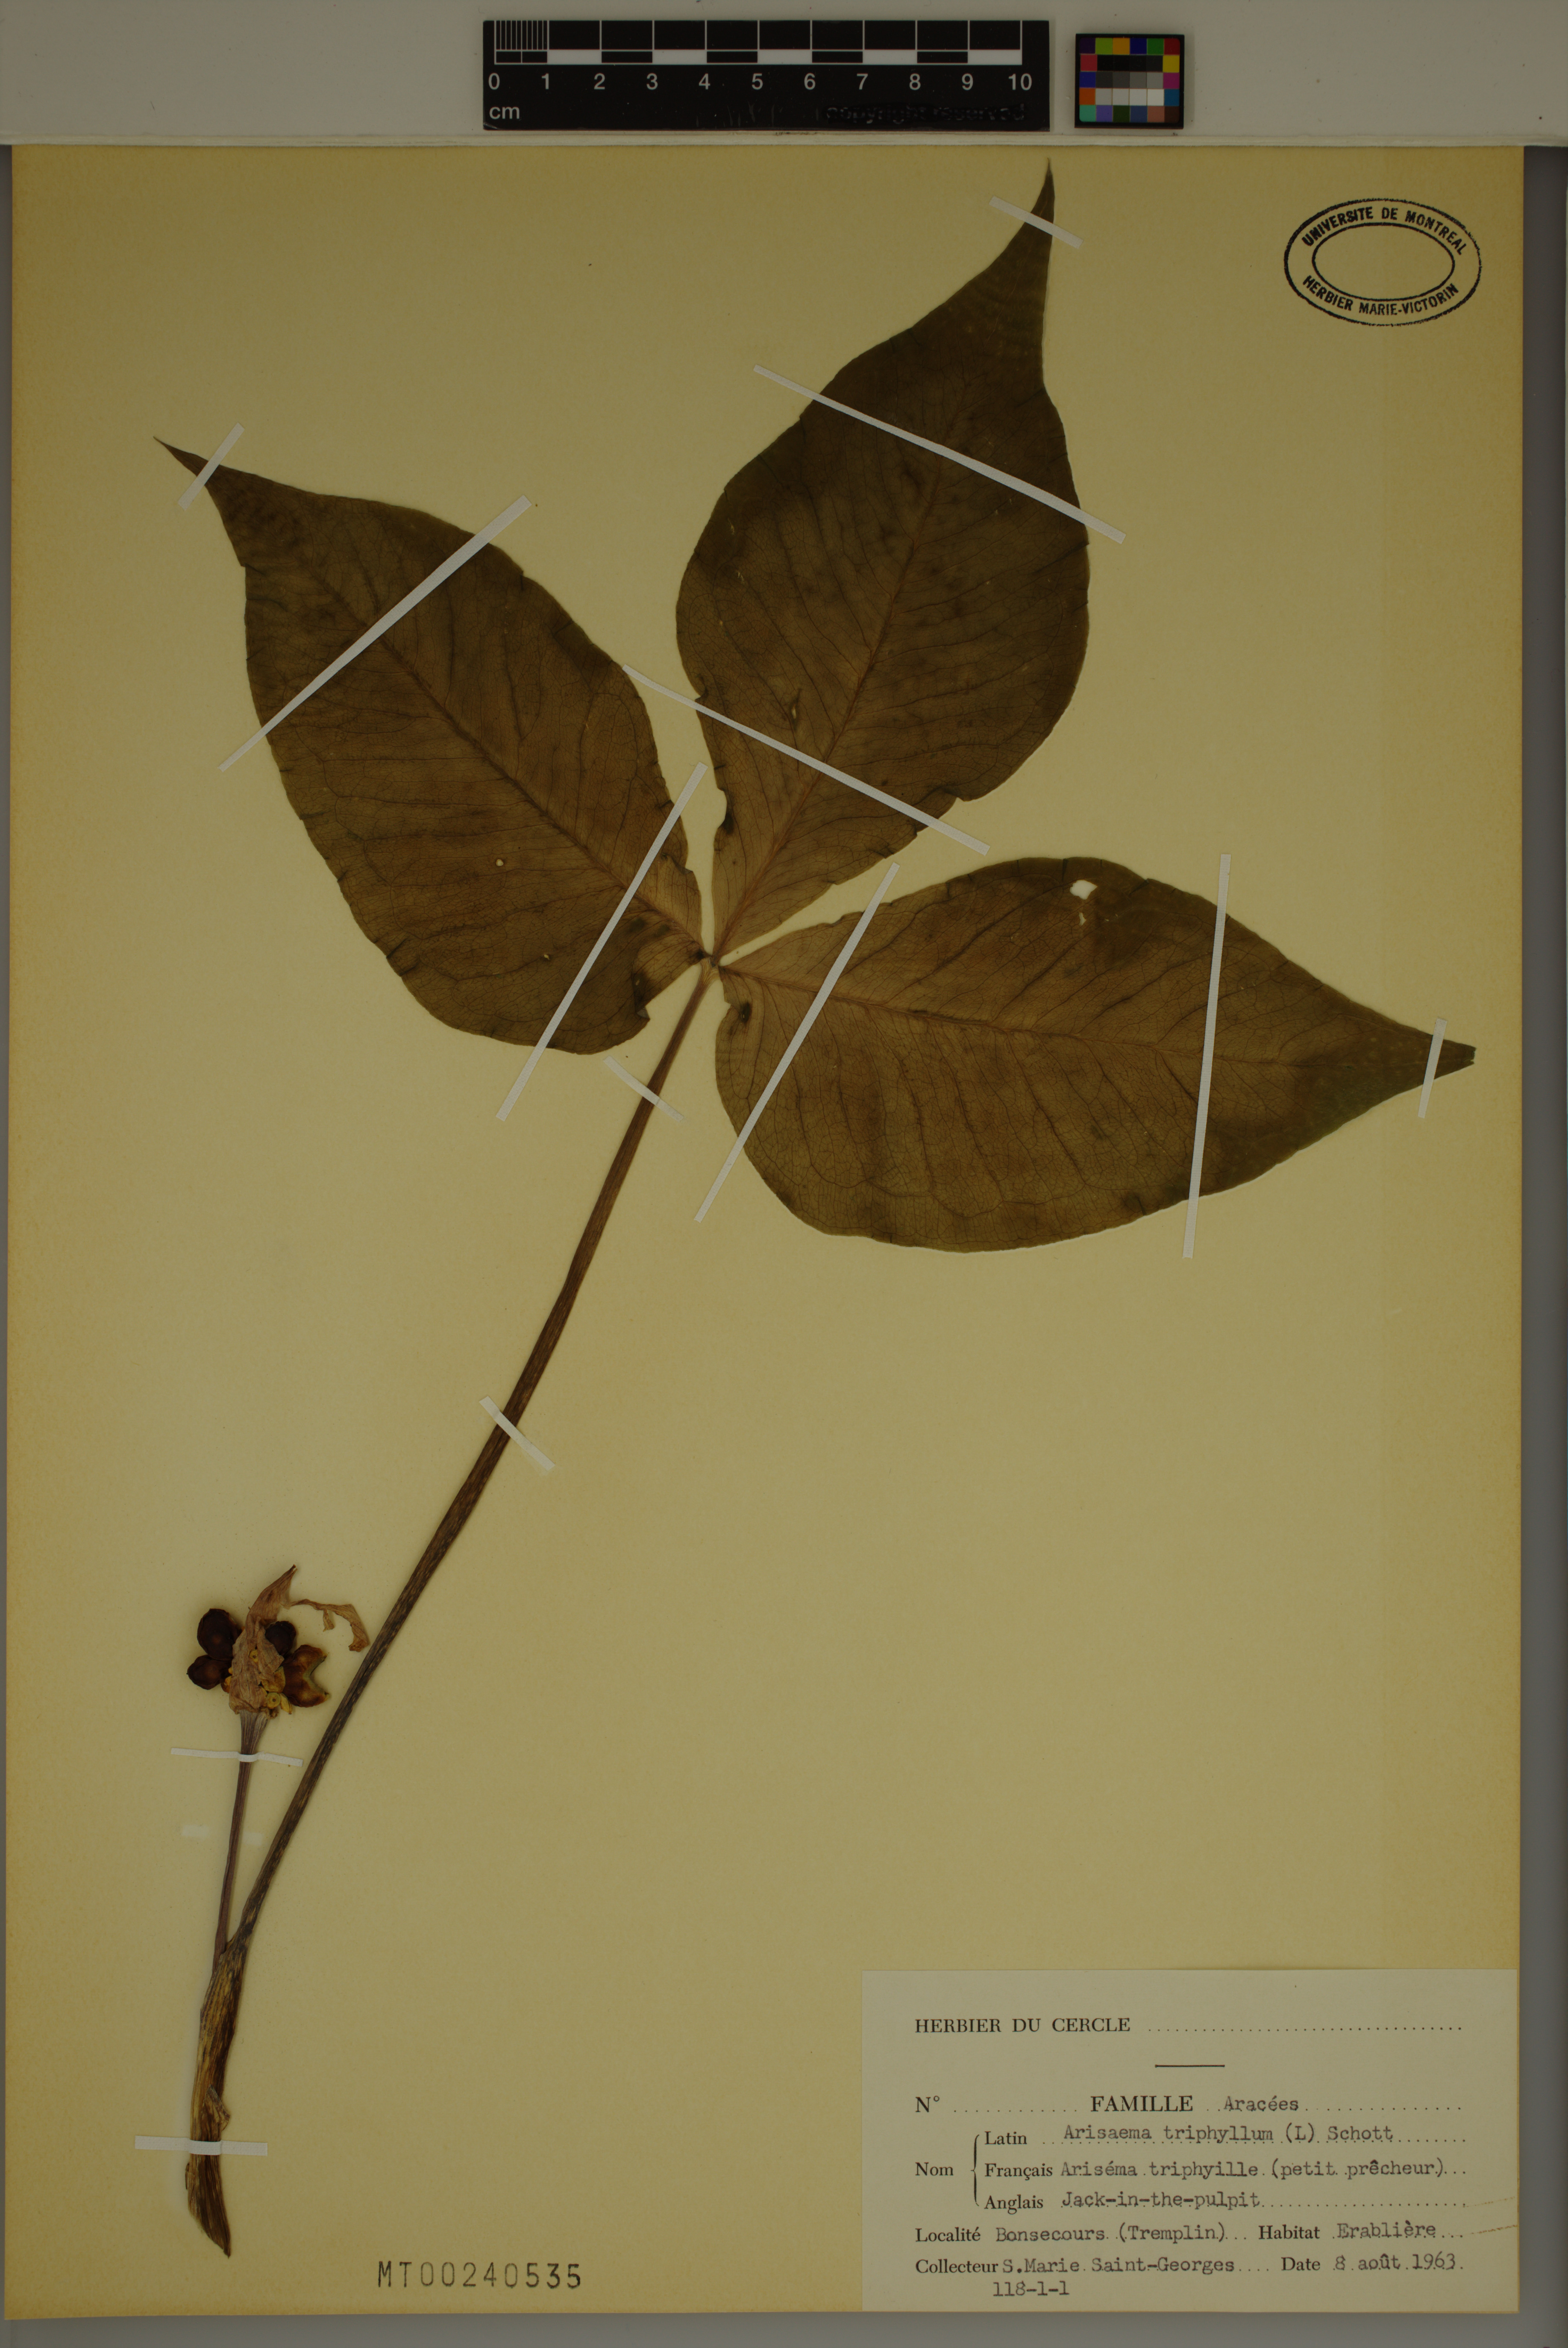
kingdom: Plantae
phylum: Tracheophyta
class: Liliopsida
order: Alismatales
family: Araceae
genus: Arisaema
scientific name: Arisaema triphyllum
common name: Jack-in-the-pulpit
